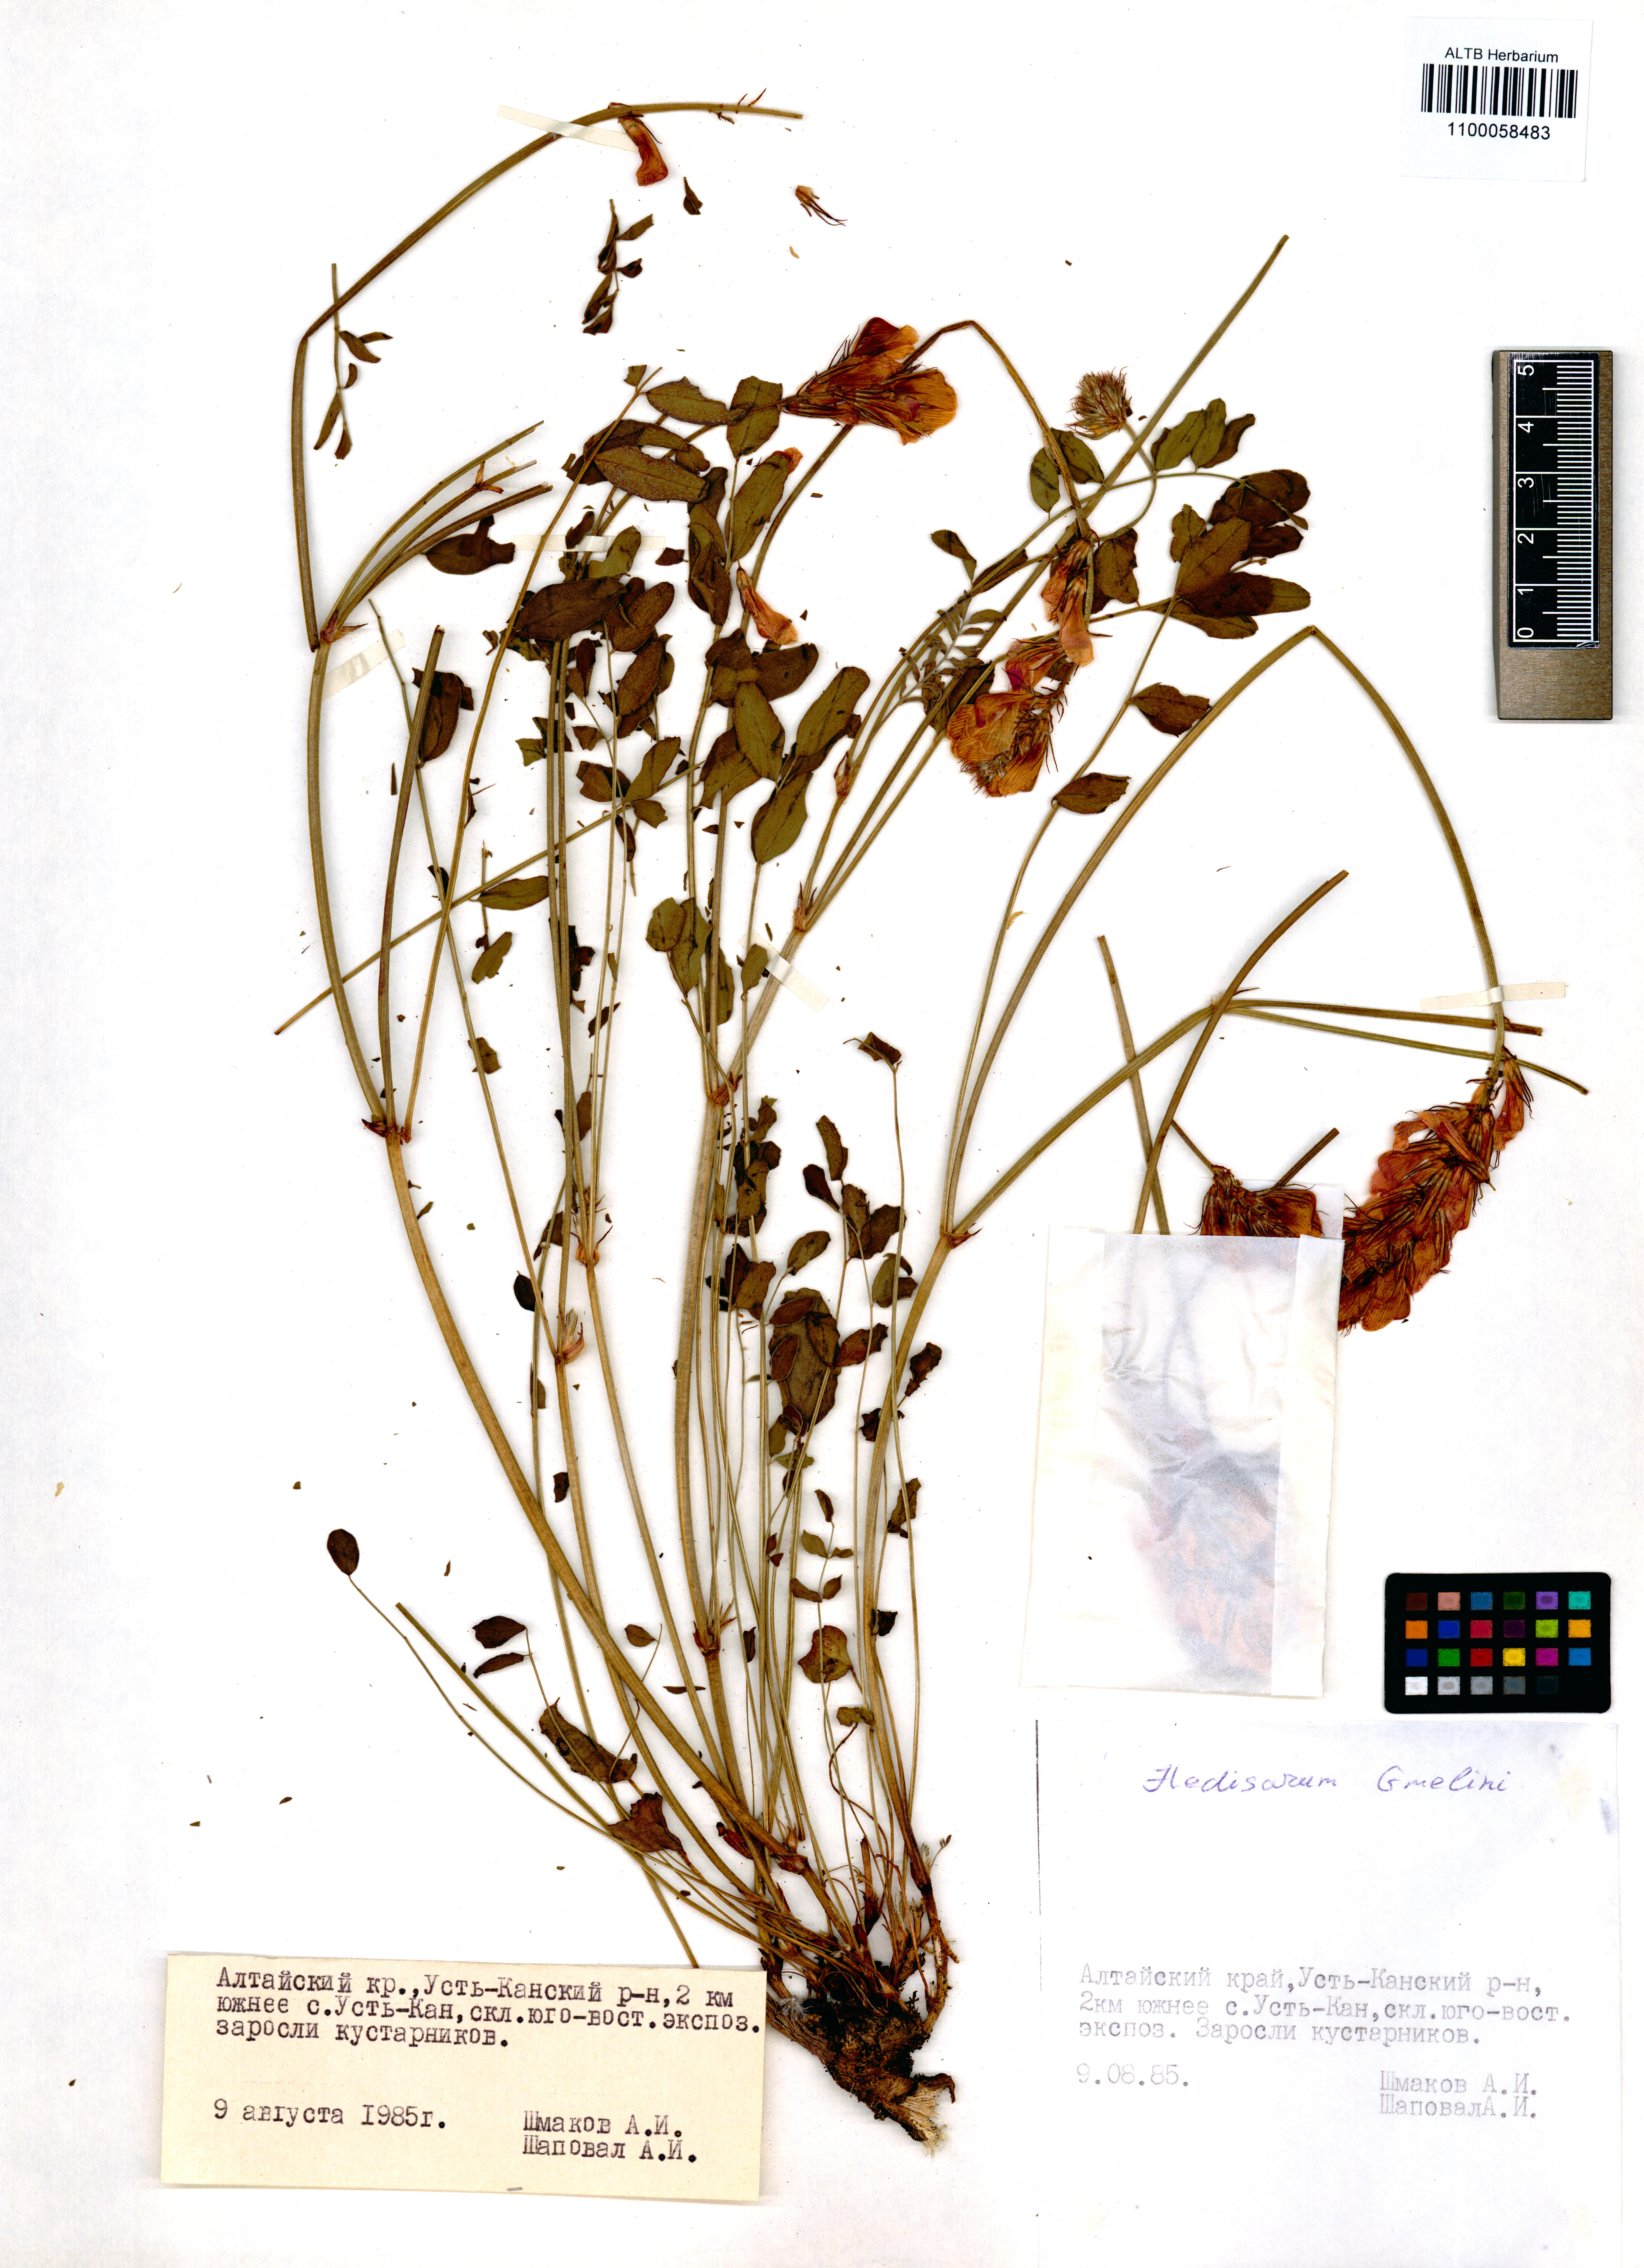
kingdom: Plantae
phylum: Tracheophyta
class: Magnoliopsida
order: Fabales
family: Fabaceae
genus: Hedysarum
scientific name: Hedysarum gmelinii
